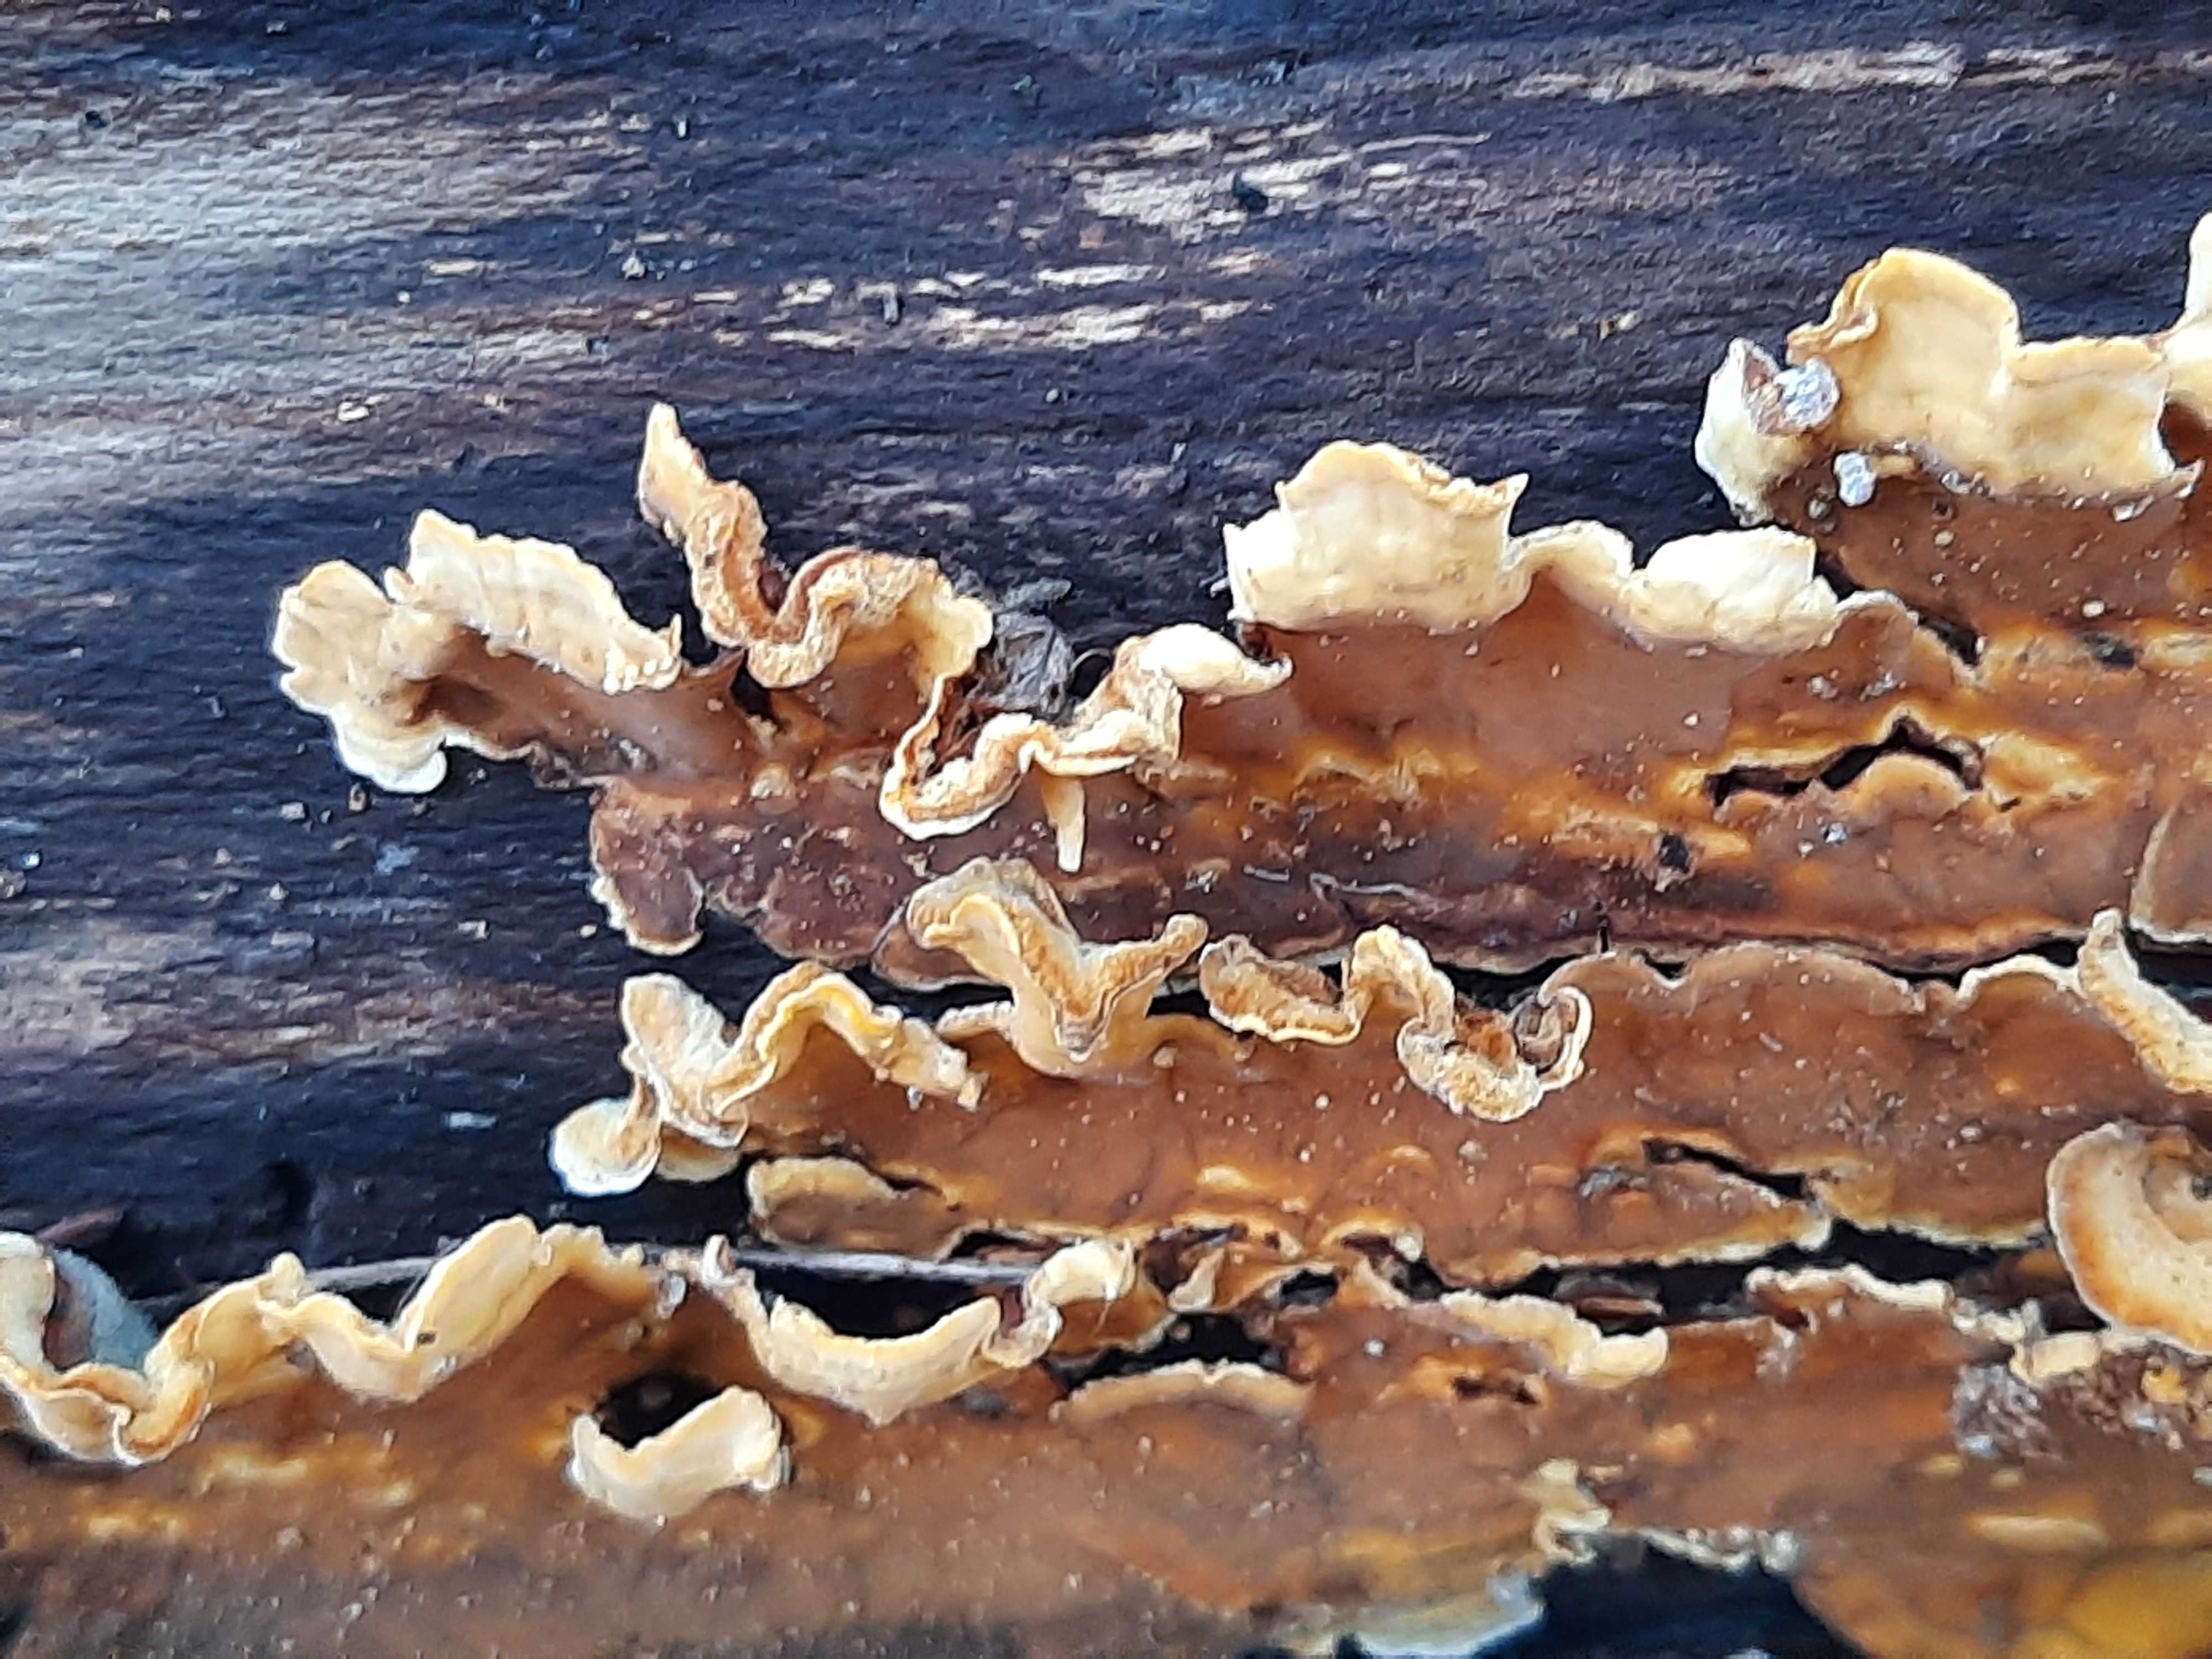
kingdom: Fungi
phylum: Basidiomycota
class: Agaricomycetes
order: Russulales
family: Stereaceae
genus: Stereum
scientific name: Stereum subtomentosum
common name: smuk lædersvamp
